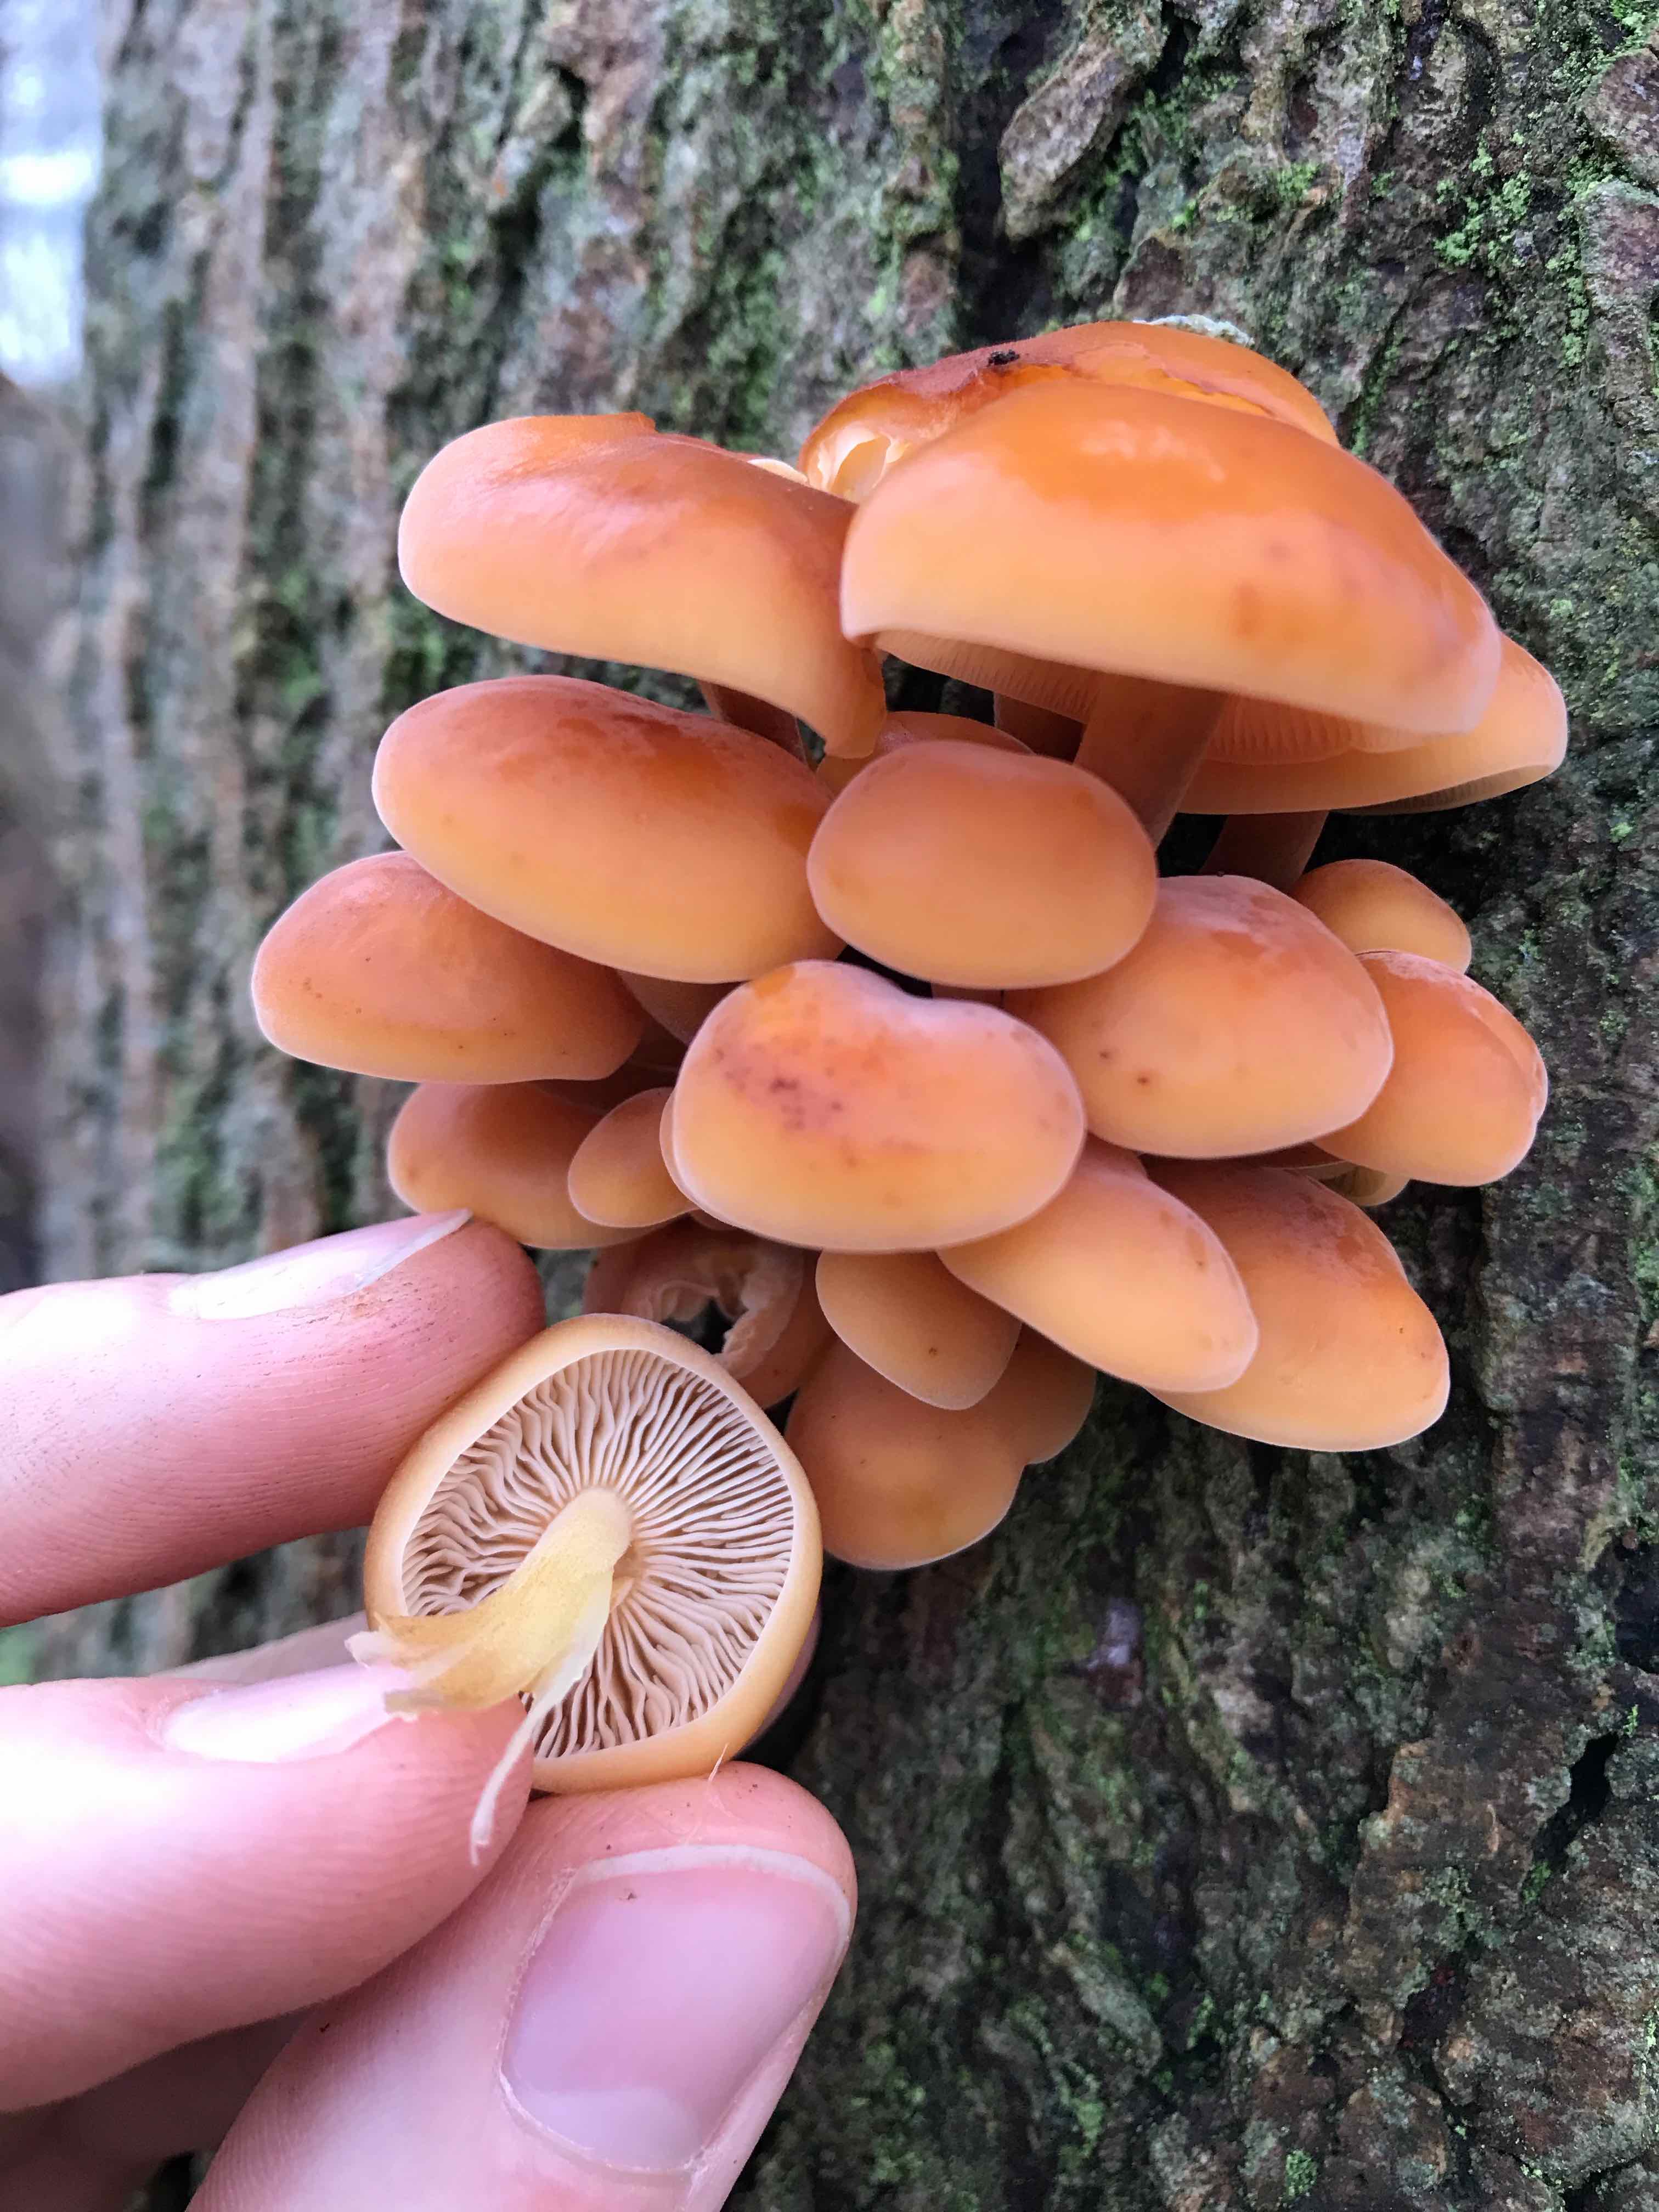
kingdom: Fungi
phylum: Basidiomycota
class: Agaricomycetes
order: Agaricales
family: Physalacriaceae
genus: Flammulina
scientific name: Flammulina
